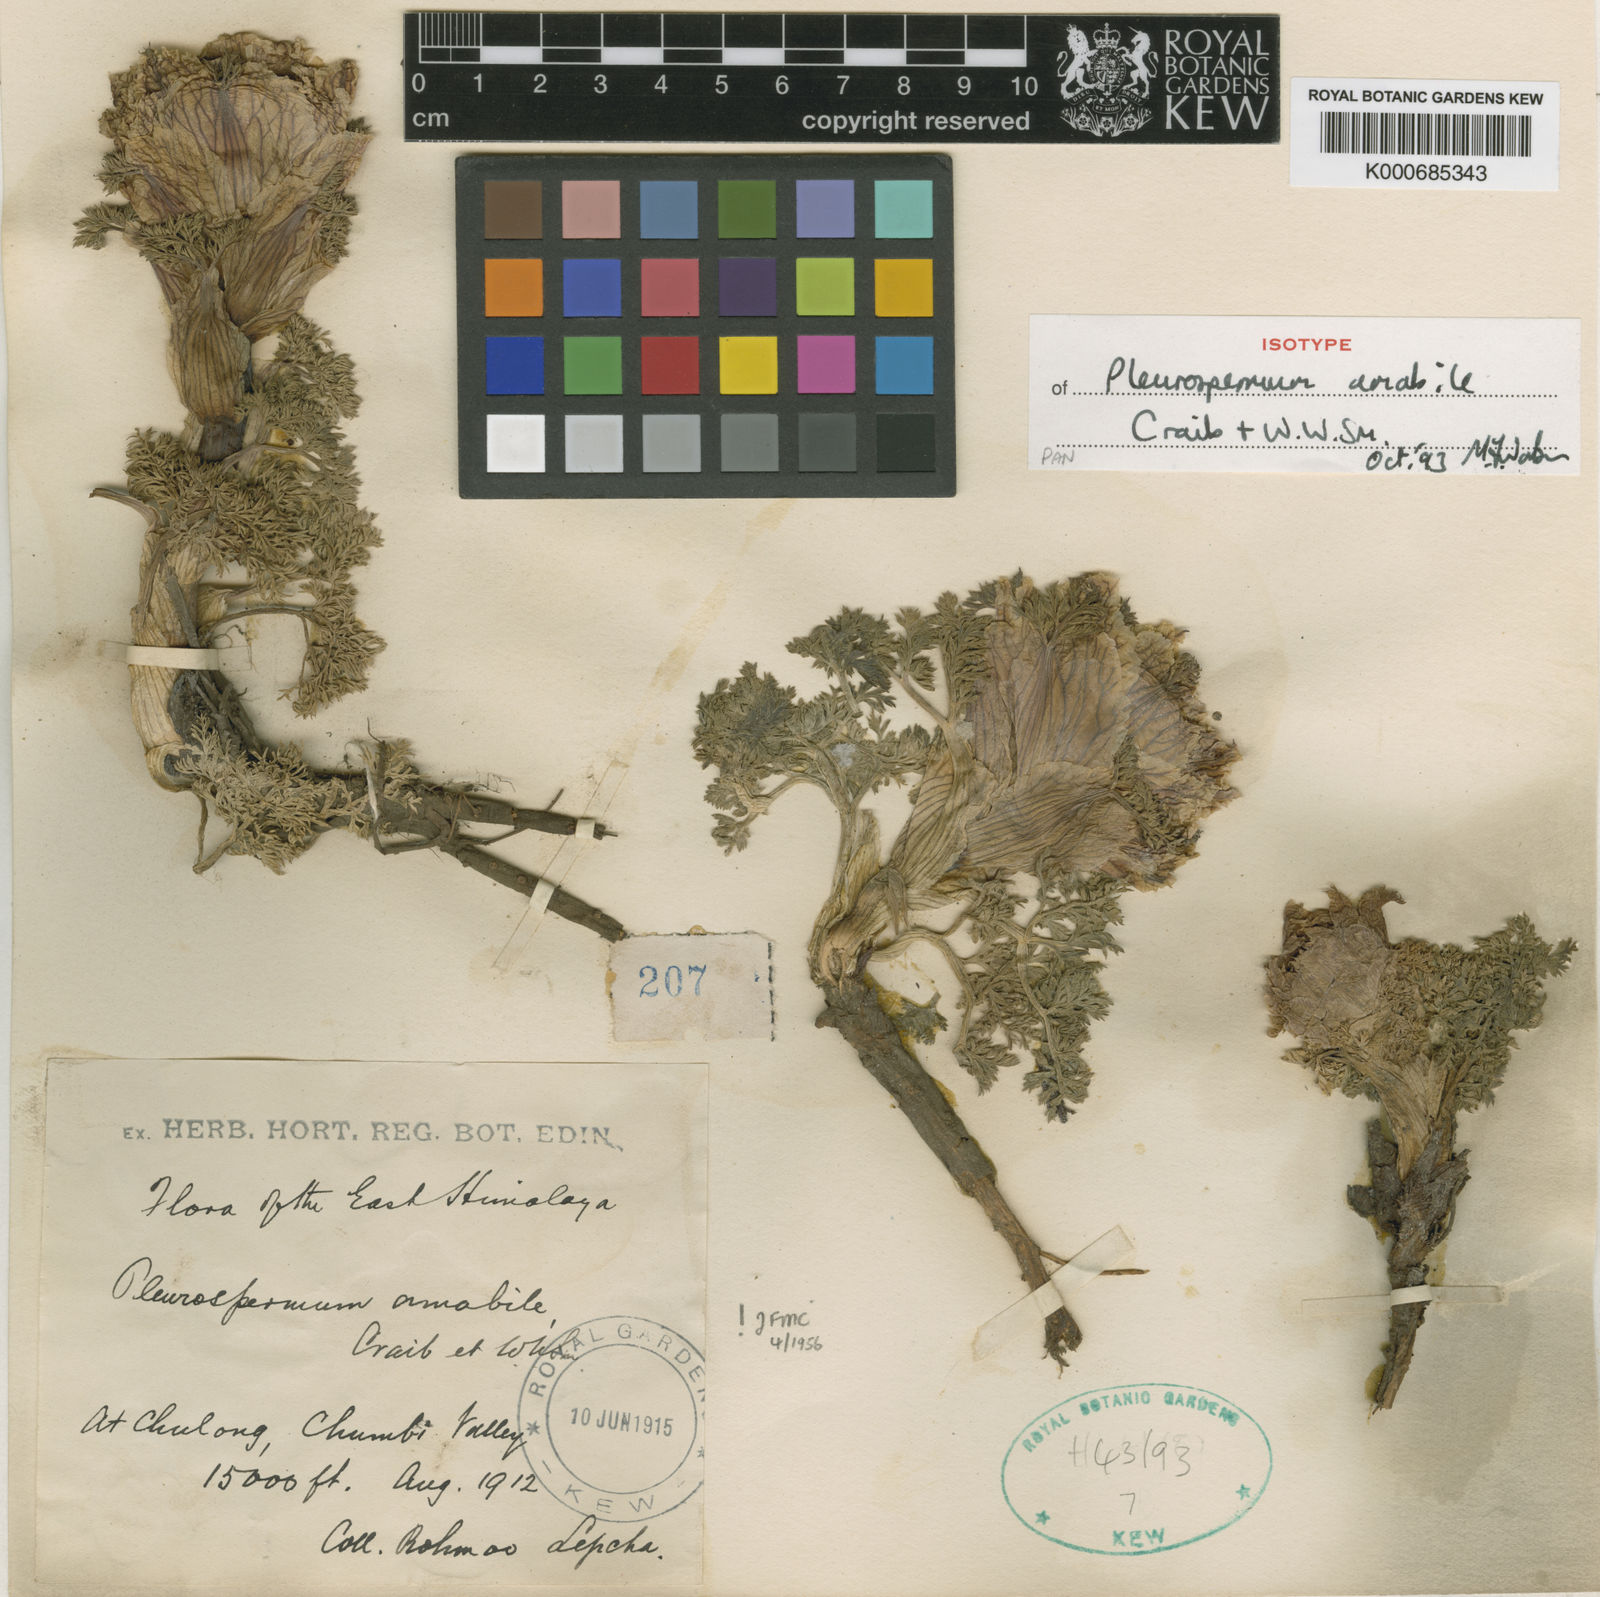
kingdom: Plantae
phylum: Tracheophyta
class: Magnoliopsida
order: Apiales
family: Apiaceae
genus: Hymenidium
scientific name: Hymenidium amabile
